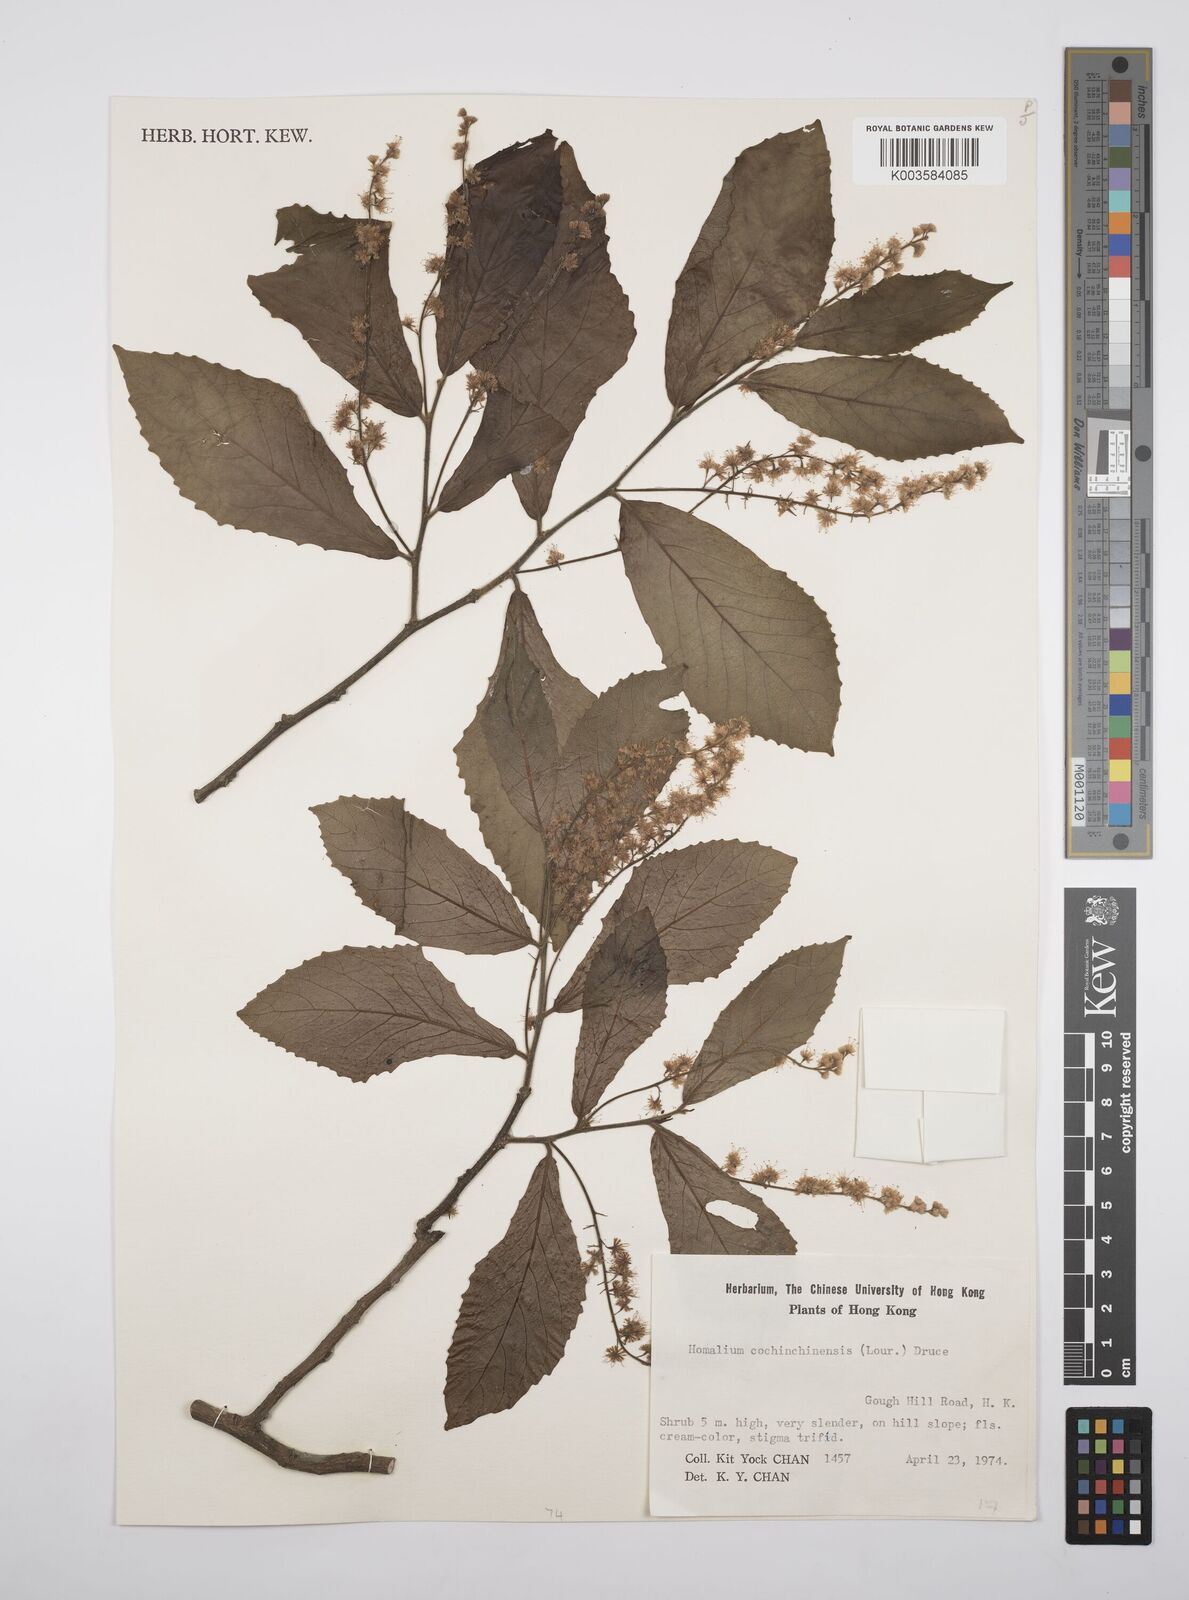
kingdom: Plantae
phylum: Tracheophyta
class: Magnoliopsida
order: Malpighiales
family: Salicaceae
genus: Homalium
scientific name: Homalium cochinchinensis
